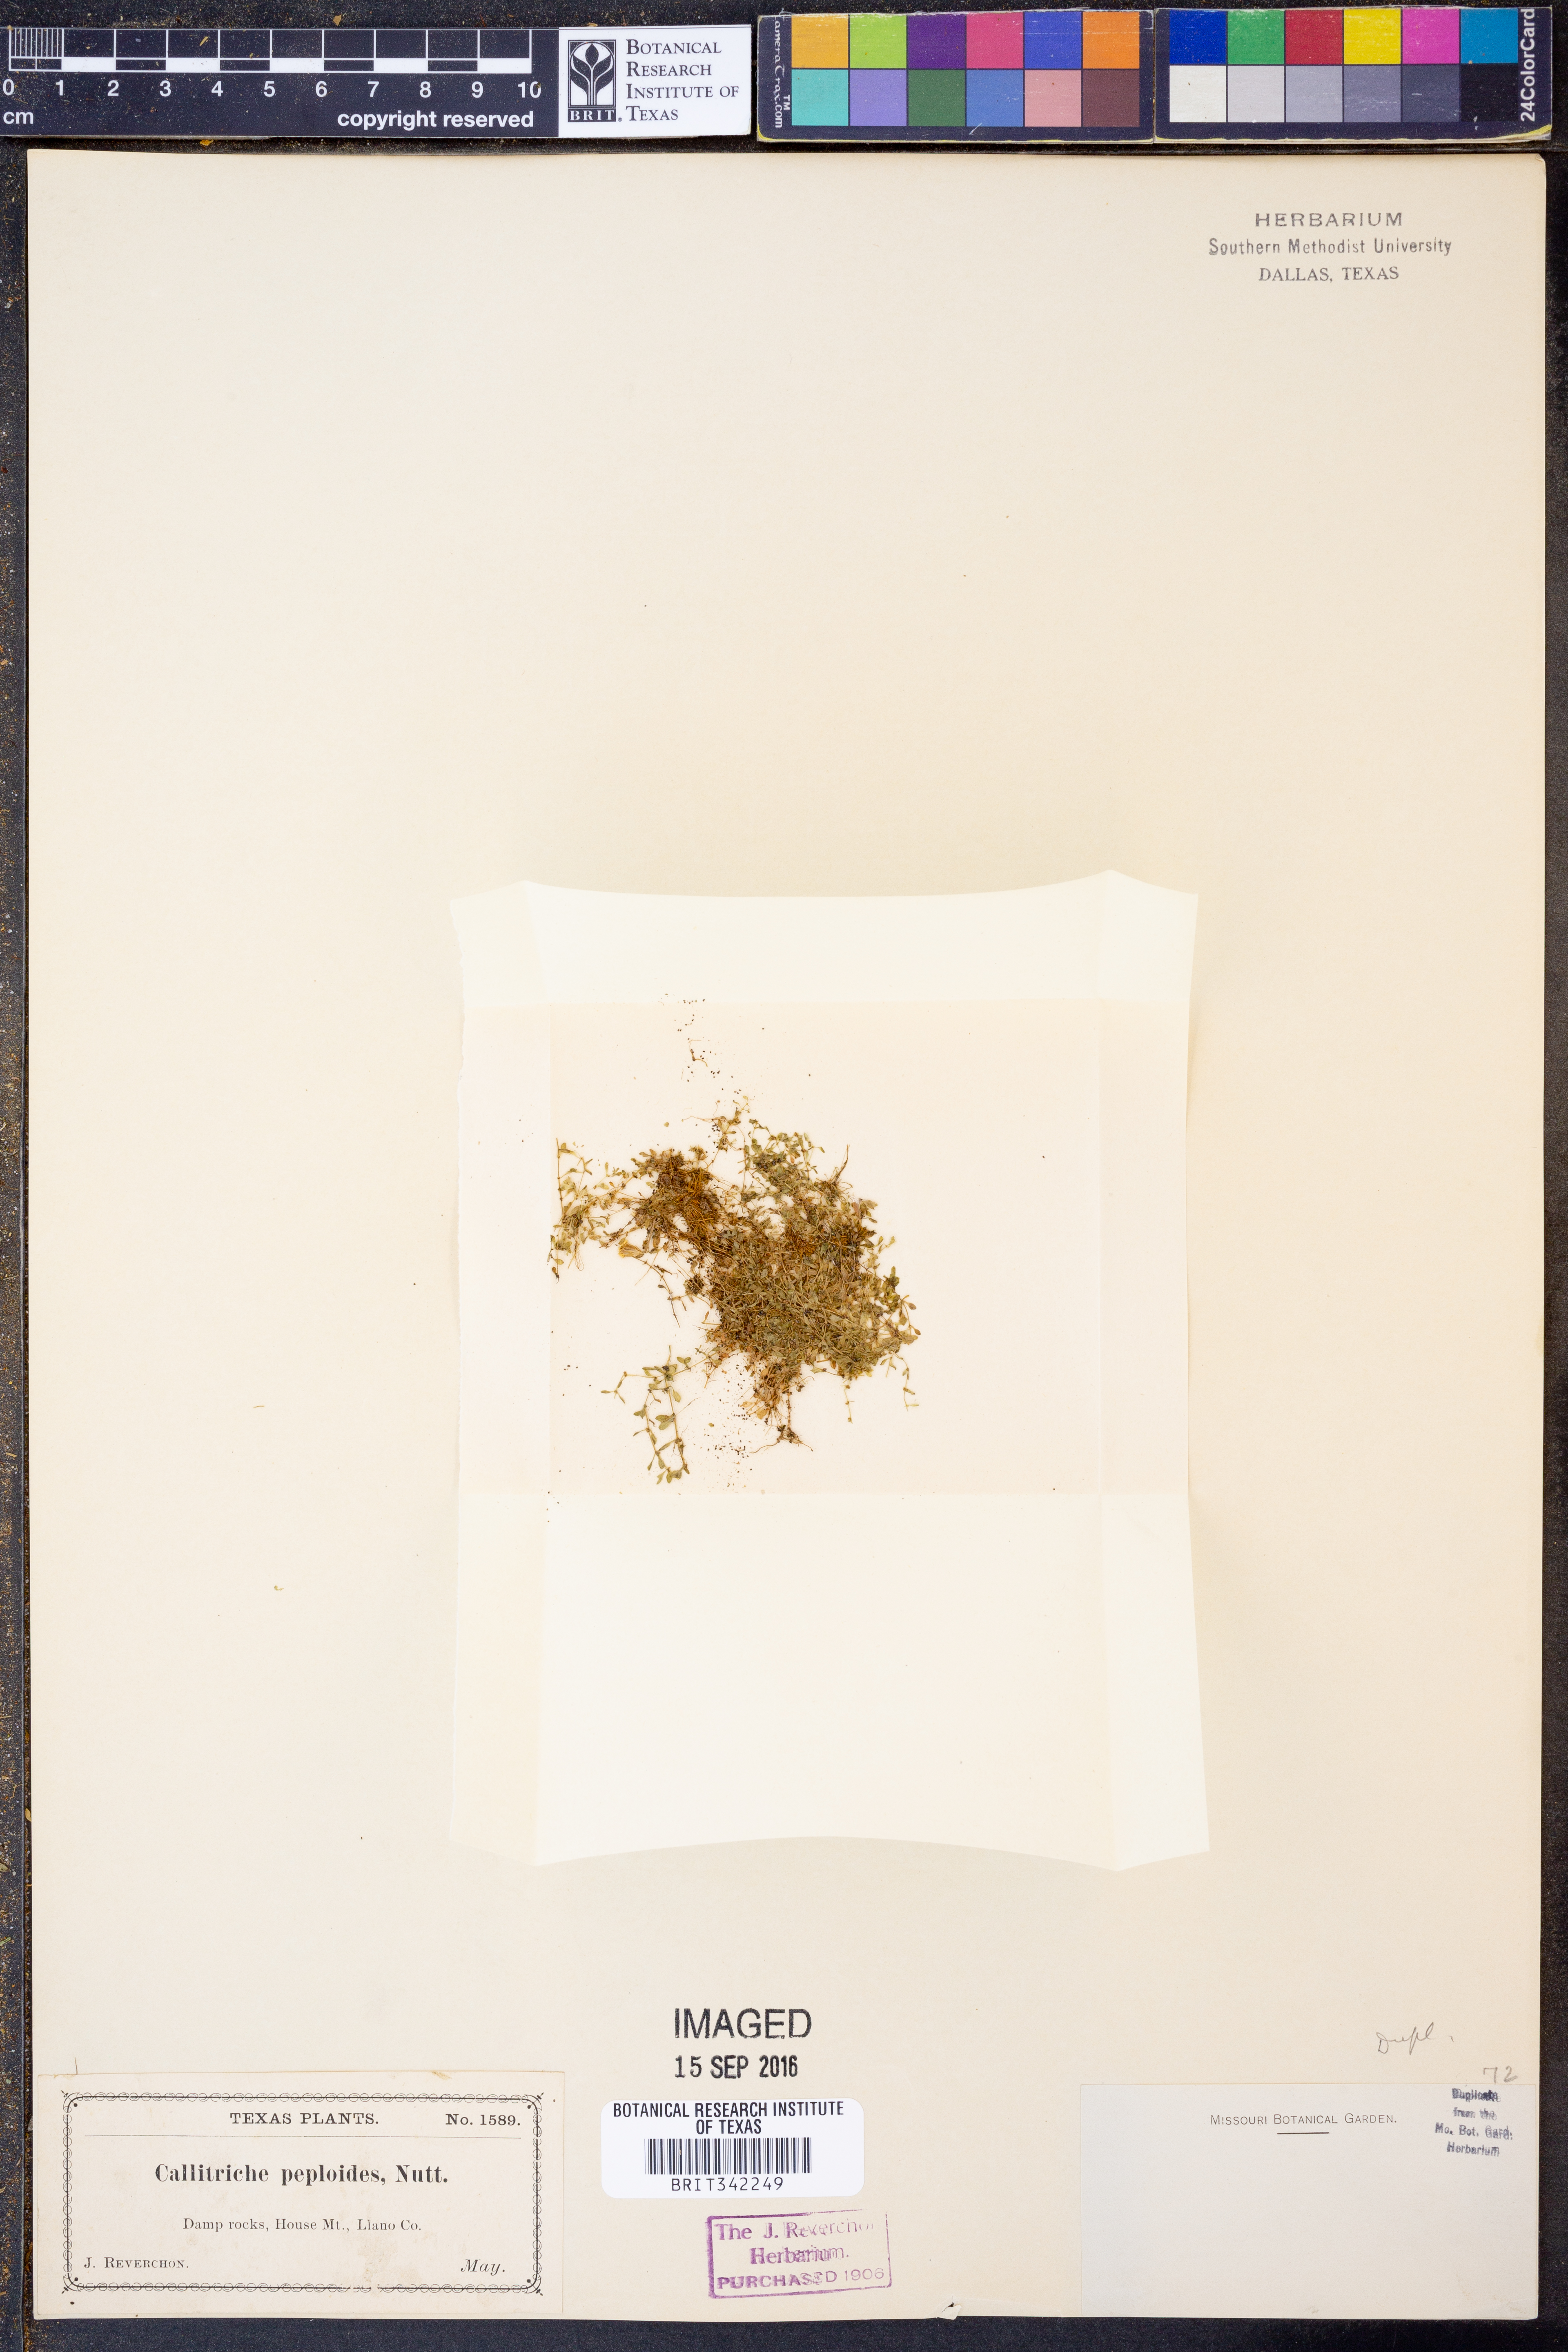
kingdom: Plantae
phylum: Tracheophyta
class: Magnoliopsida
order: Lamiales
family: Plantaginaceae
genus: Callitriche
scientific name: Callitriche peploides
